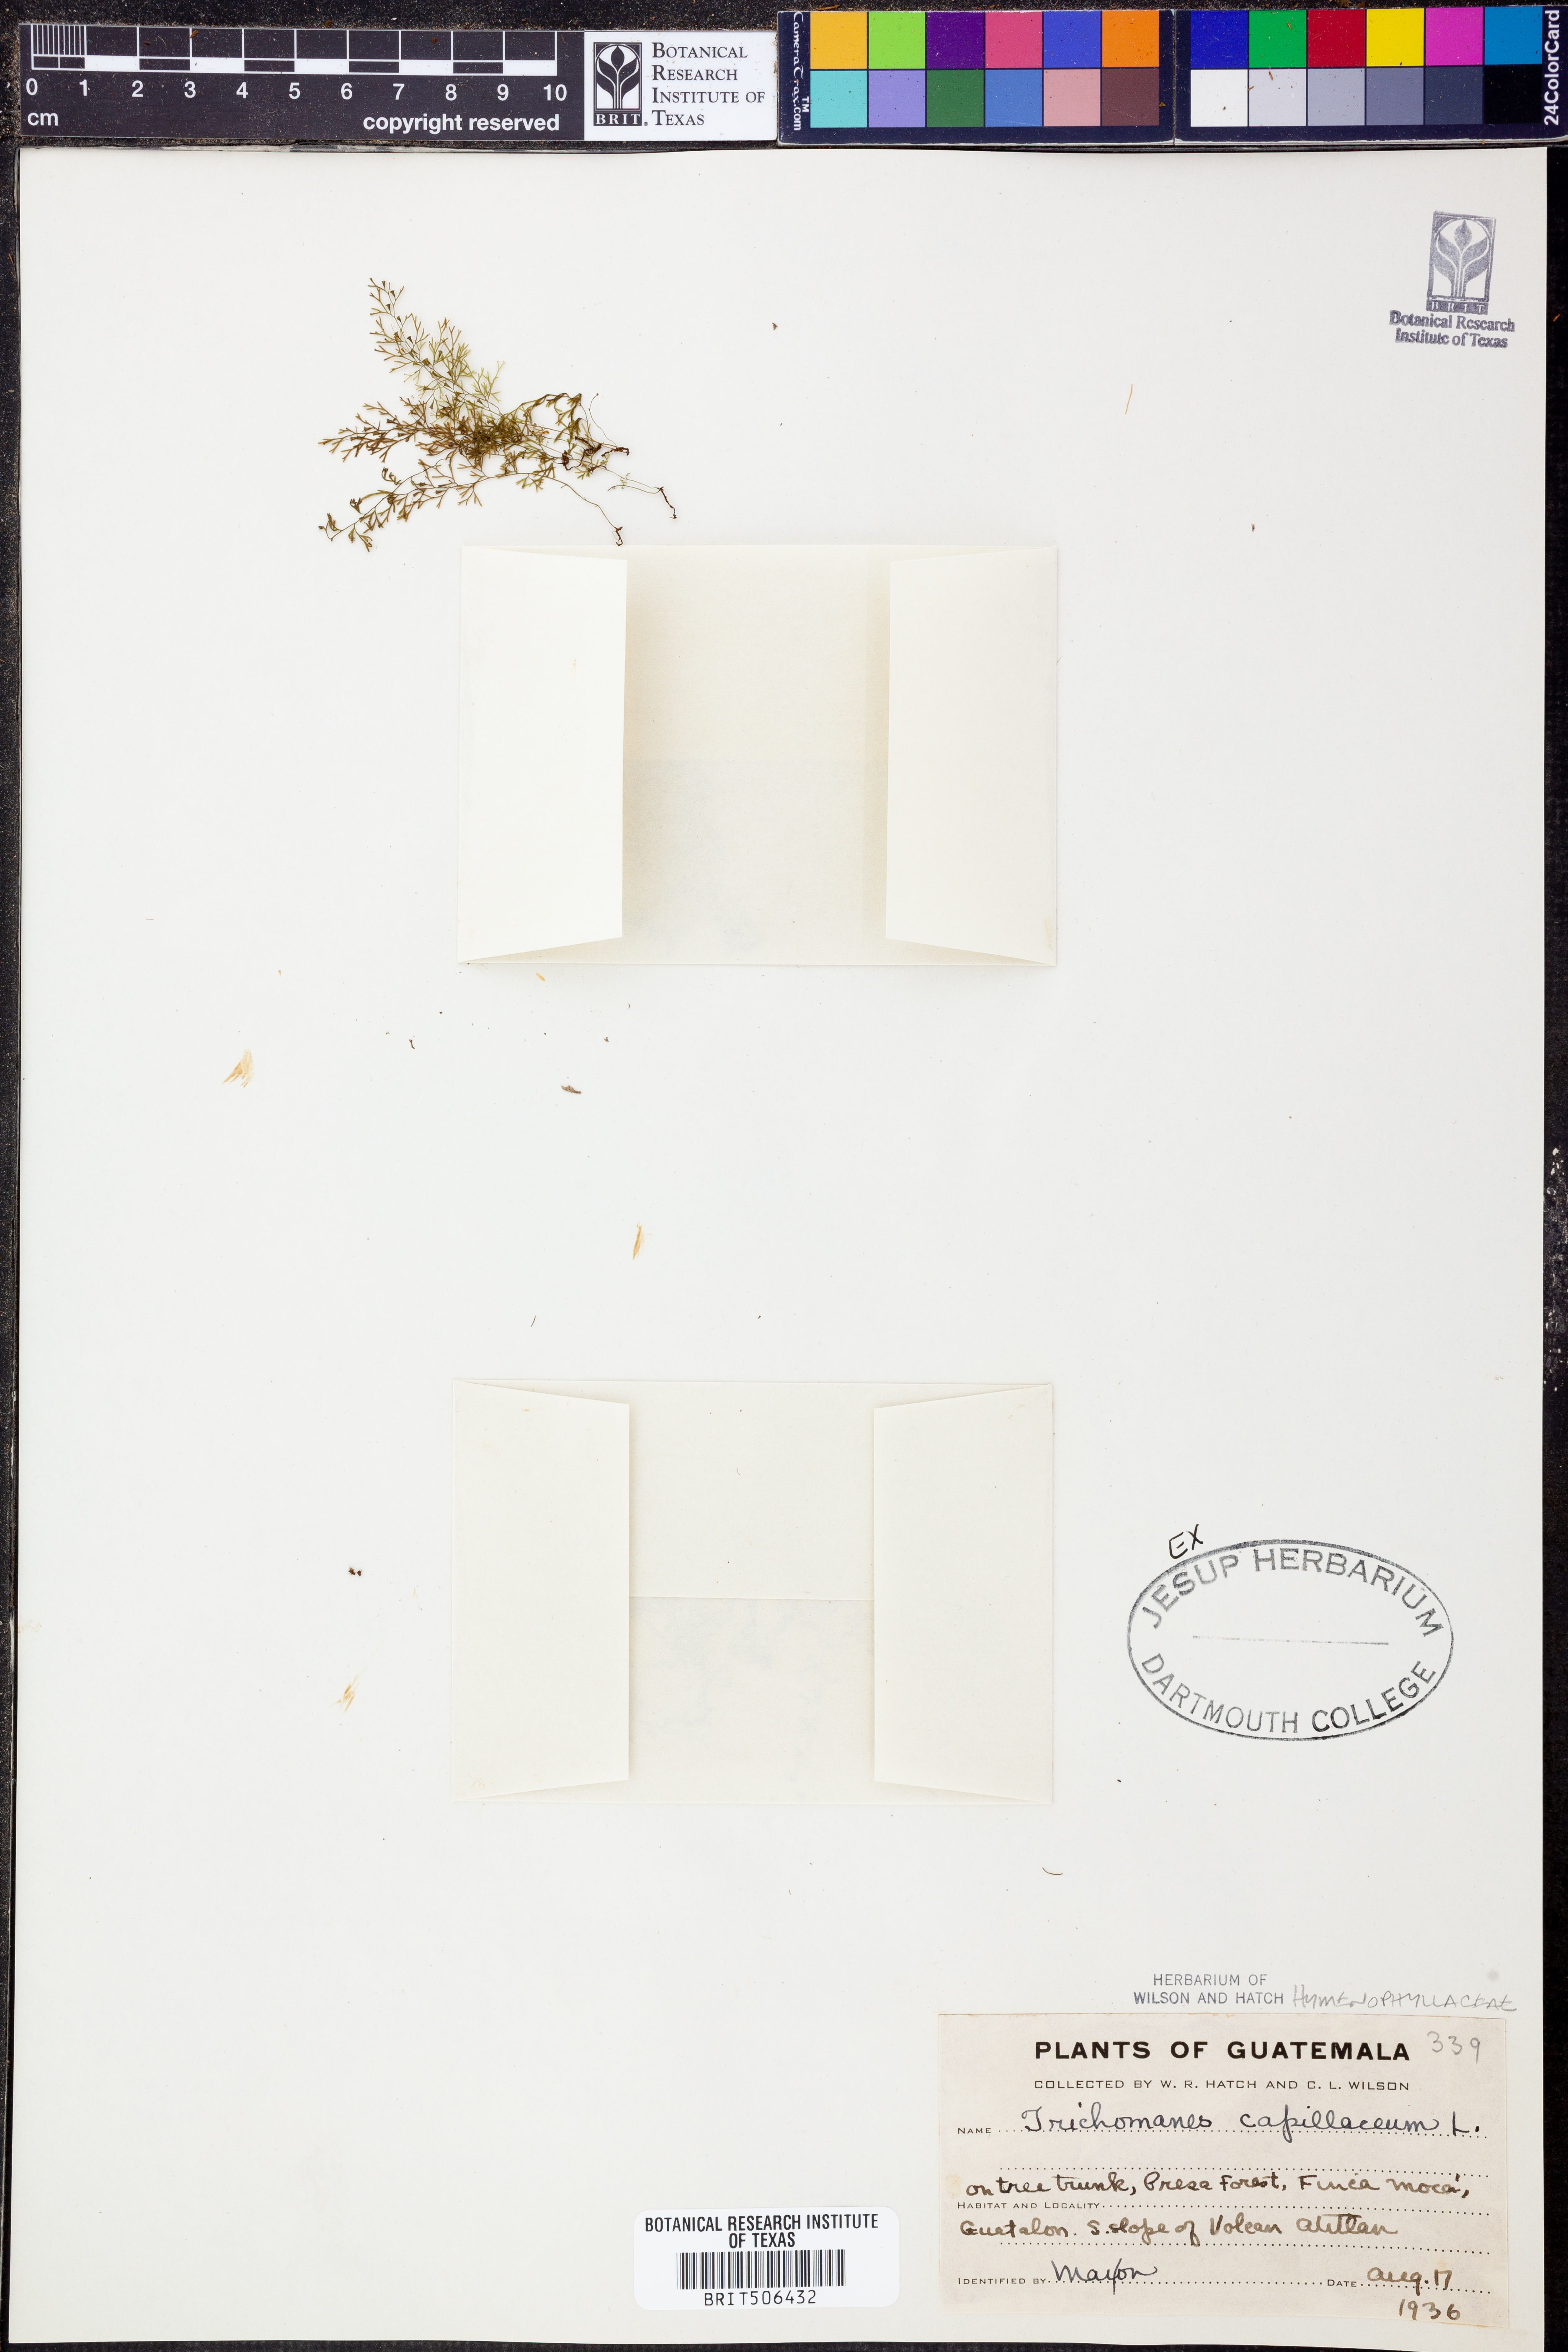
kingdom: Plantae
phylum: Tracheophyta
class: Polypodiopsida
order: Hymenophyllales
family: Hymenophyllaceae
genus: Polyphlebium
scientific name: Polyphlebium capillaceum
